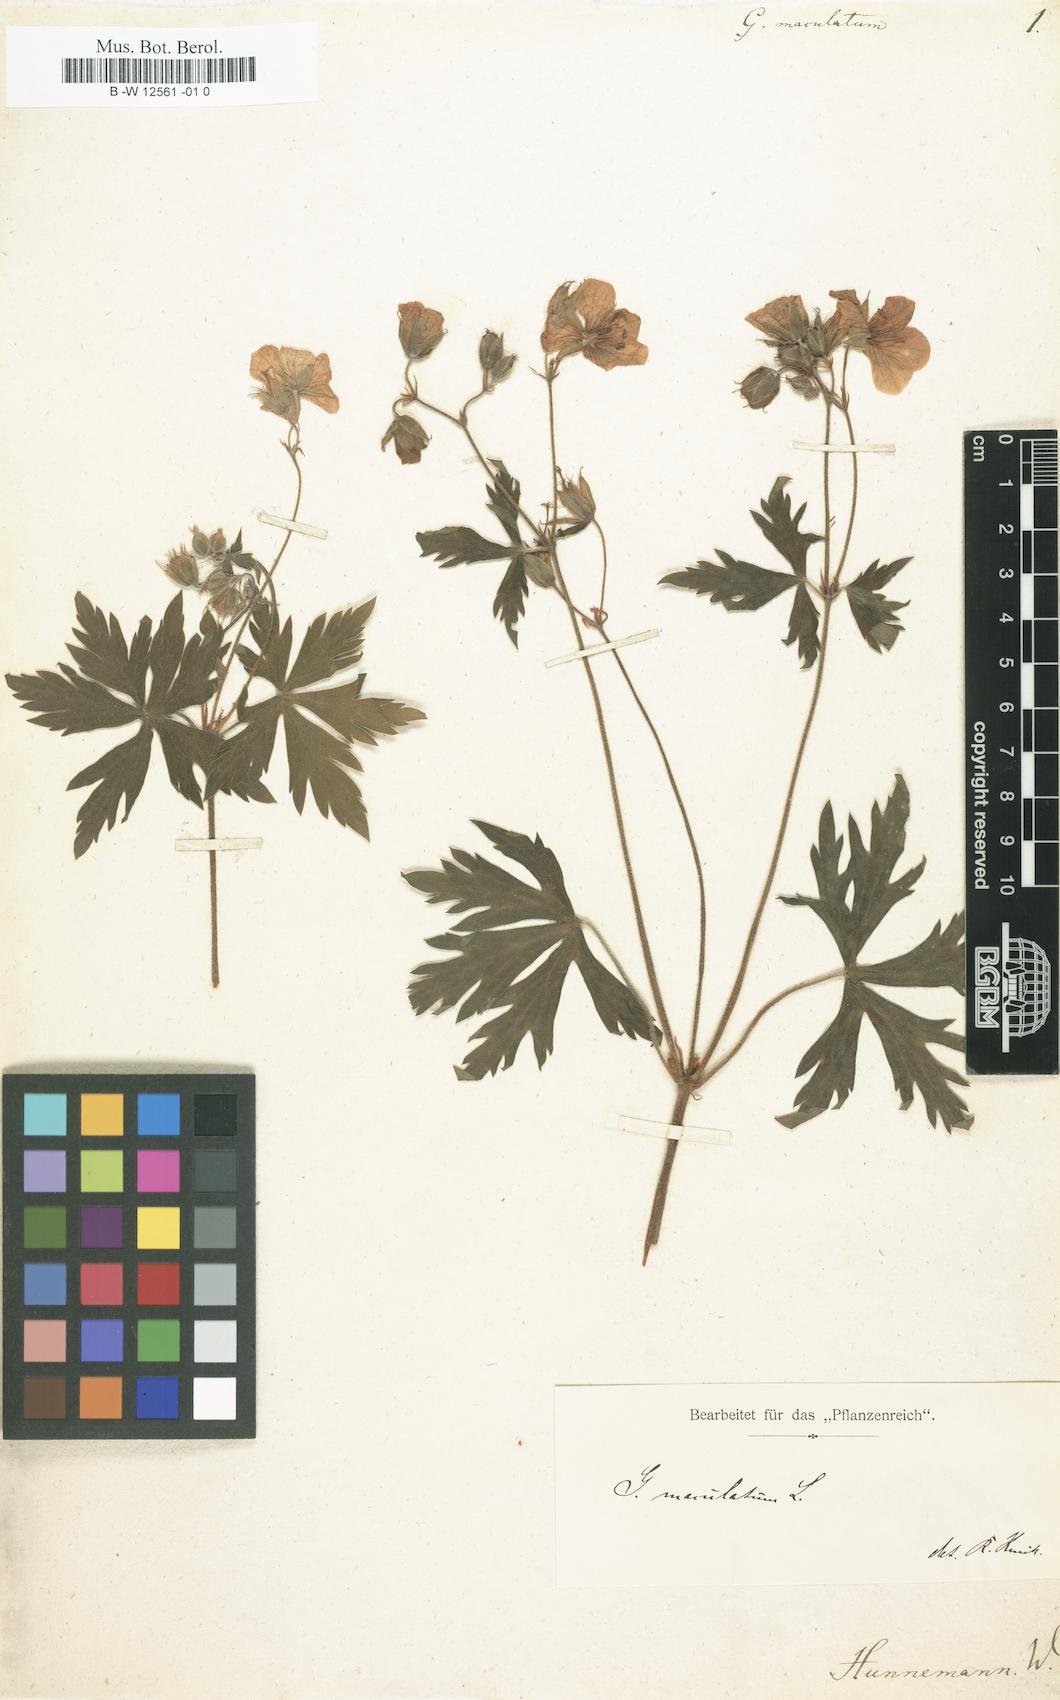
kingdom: Plantae
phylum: Tracheophyta
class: Magnoliopsida
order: Geraniales
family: Geraniaceae
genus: Geranium
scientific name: Geranium maculatum
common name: Spotted geranium
